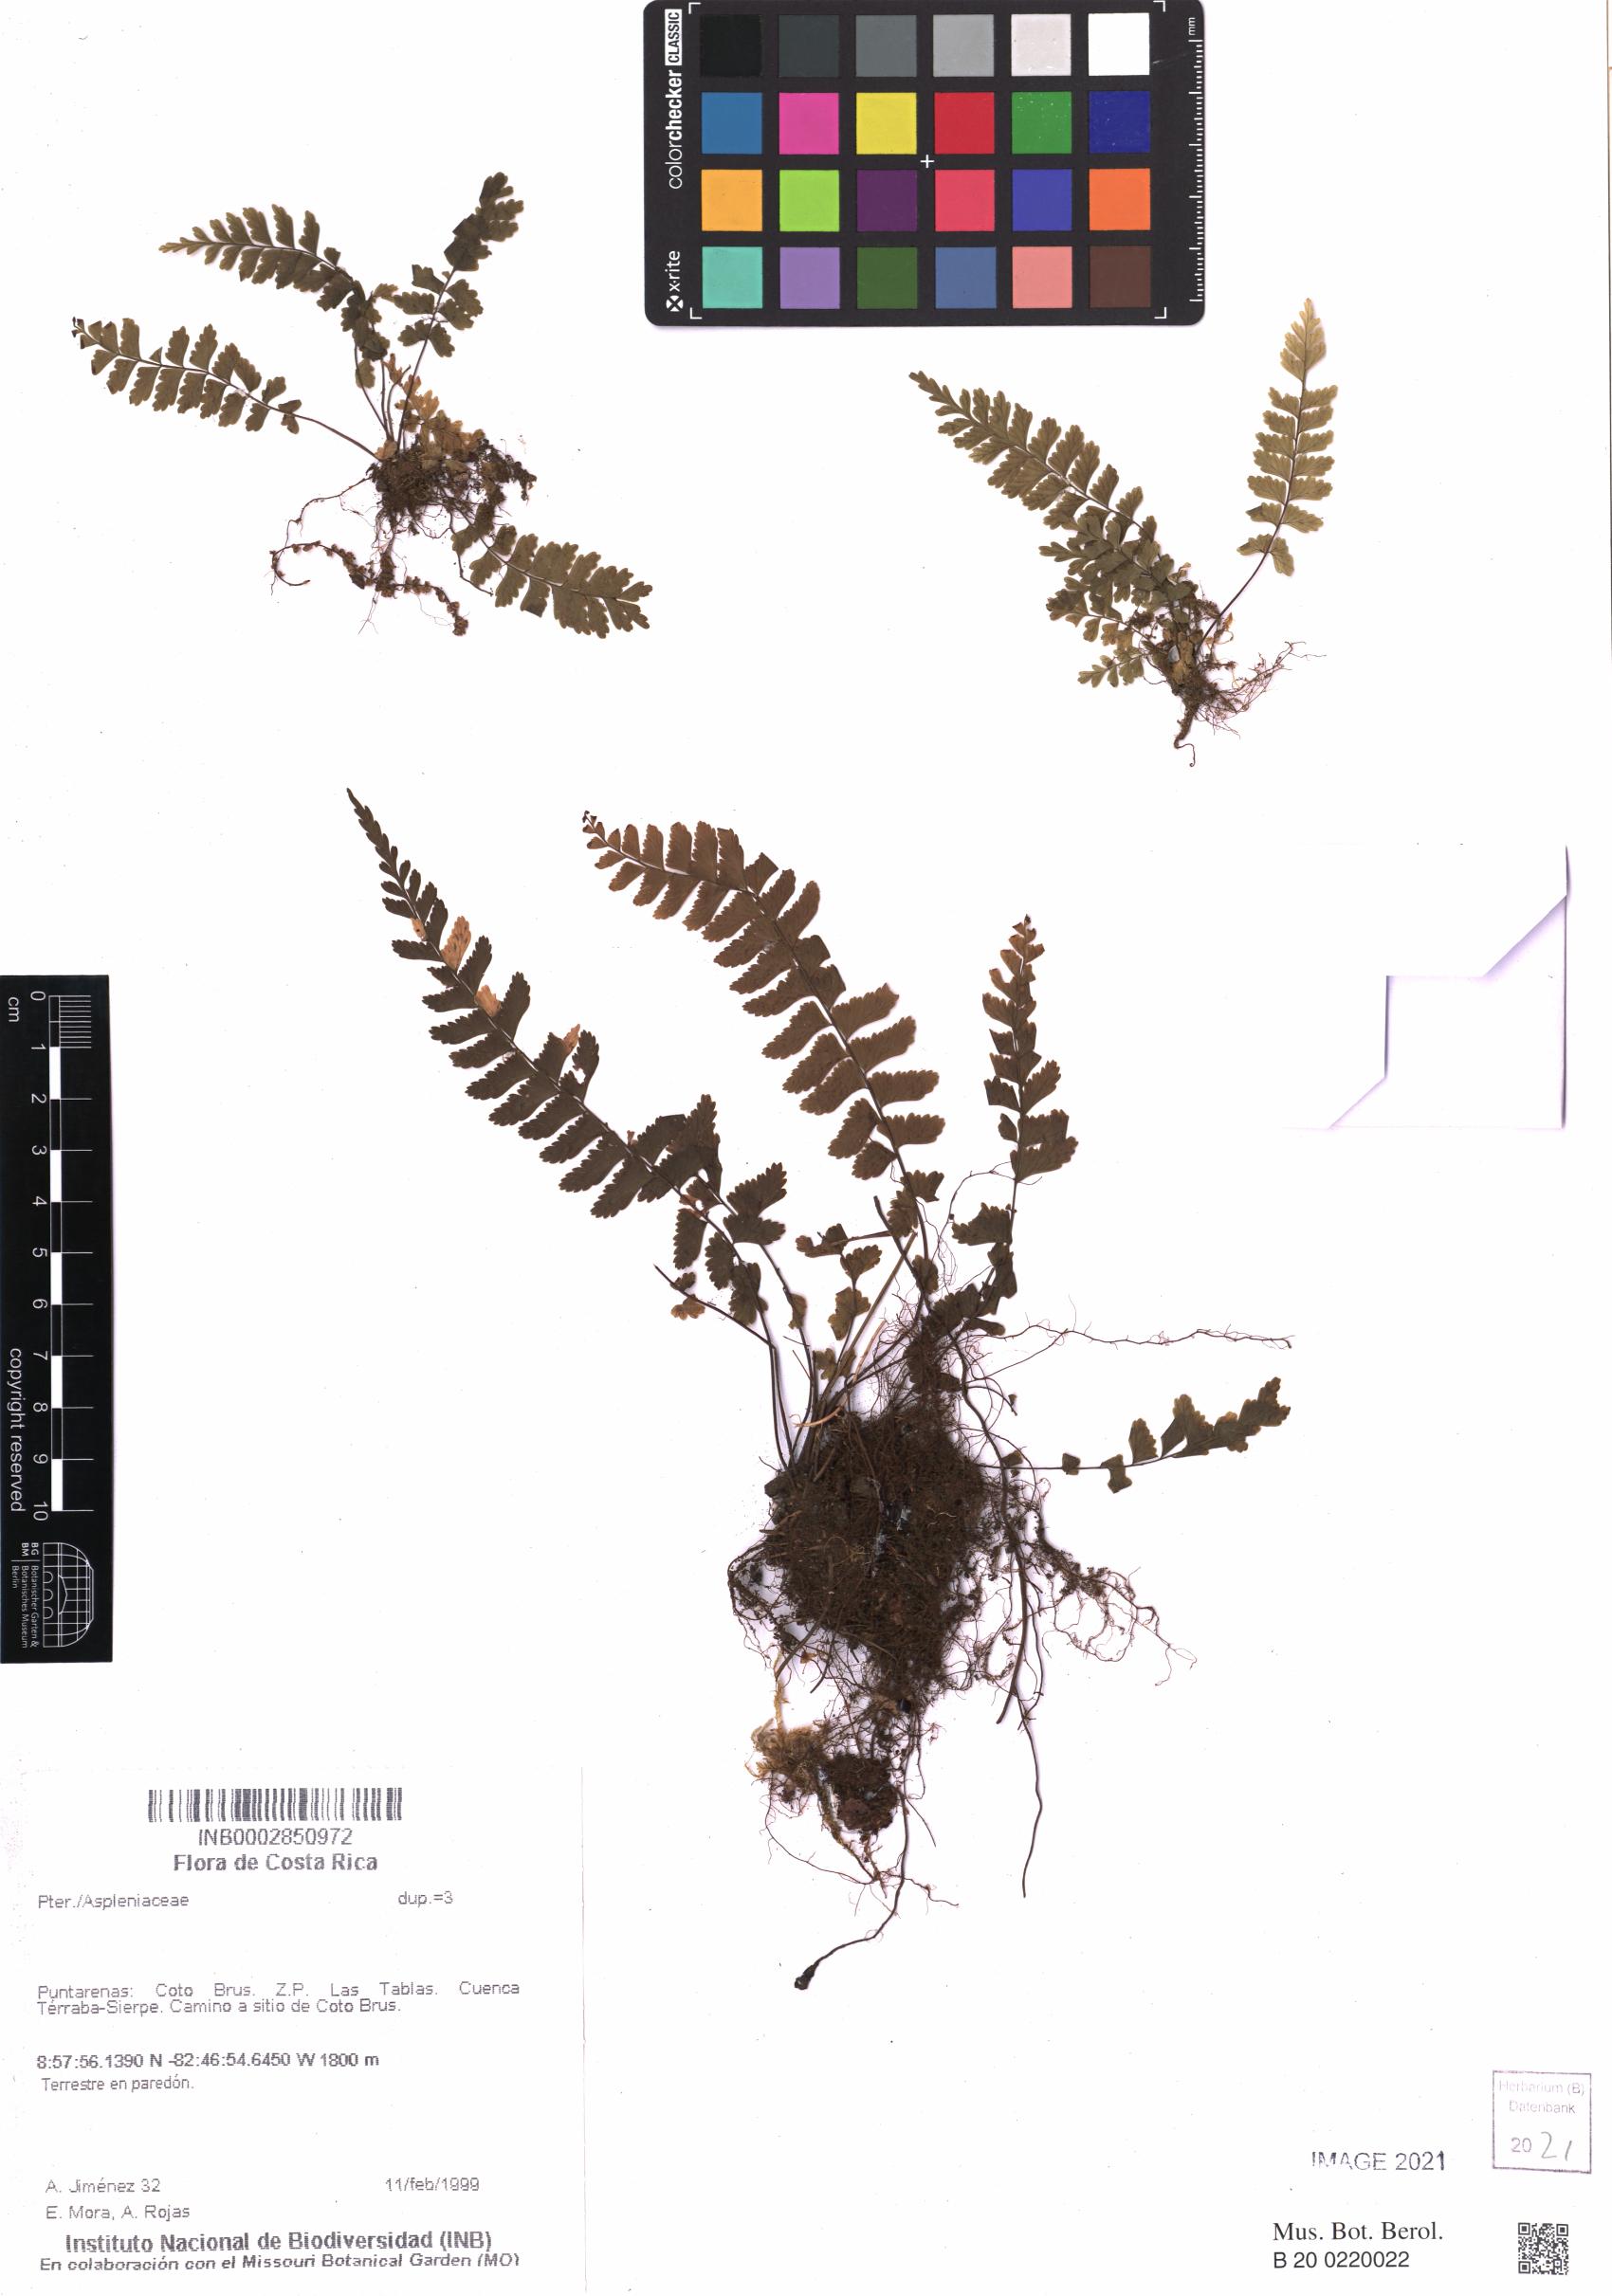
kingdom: Plantae
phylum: Tracheophyta
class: Polypodiopsida
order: Polypodiales
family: Aspleniaceae
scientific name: Aspleniaceae
